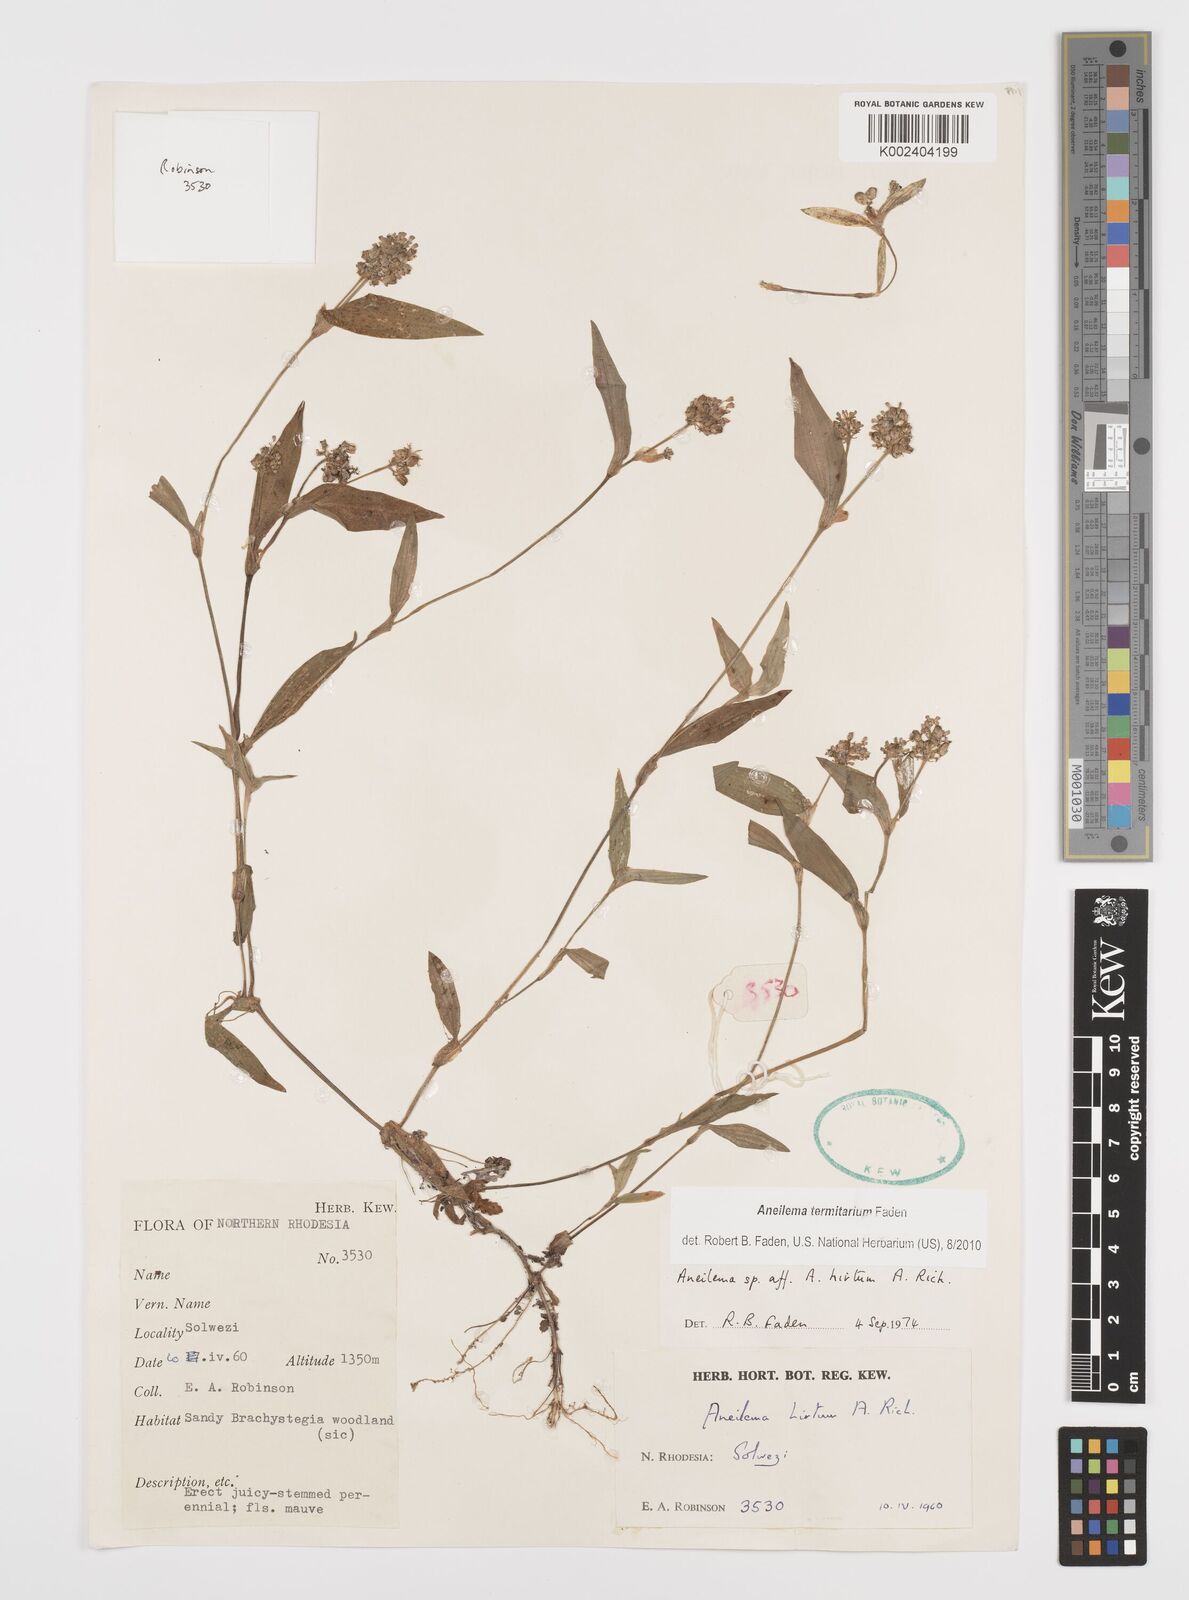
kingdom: Plantae
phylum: Tracheophyta
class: Liliopsida
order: Commelinales
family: Commelinaceae
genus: Aneilema
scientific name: Aneilema termitarium
